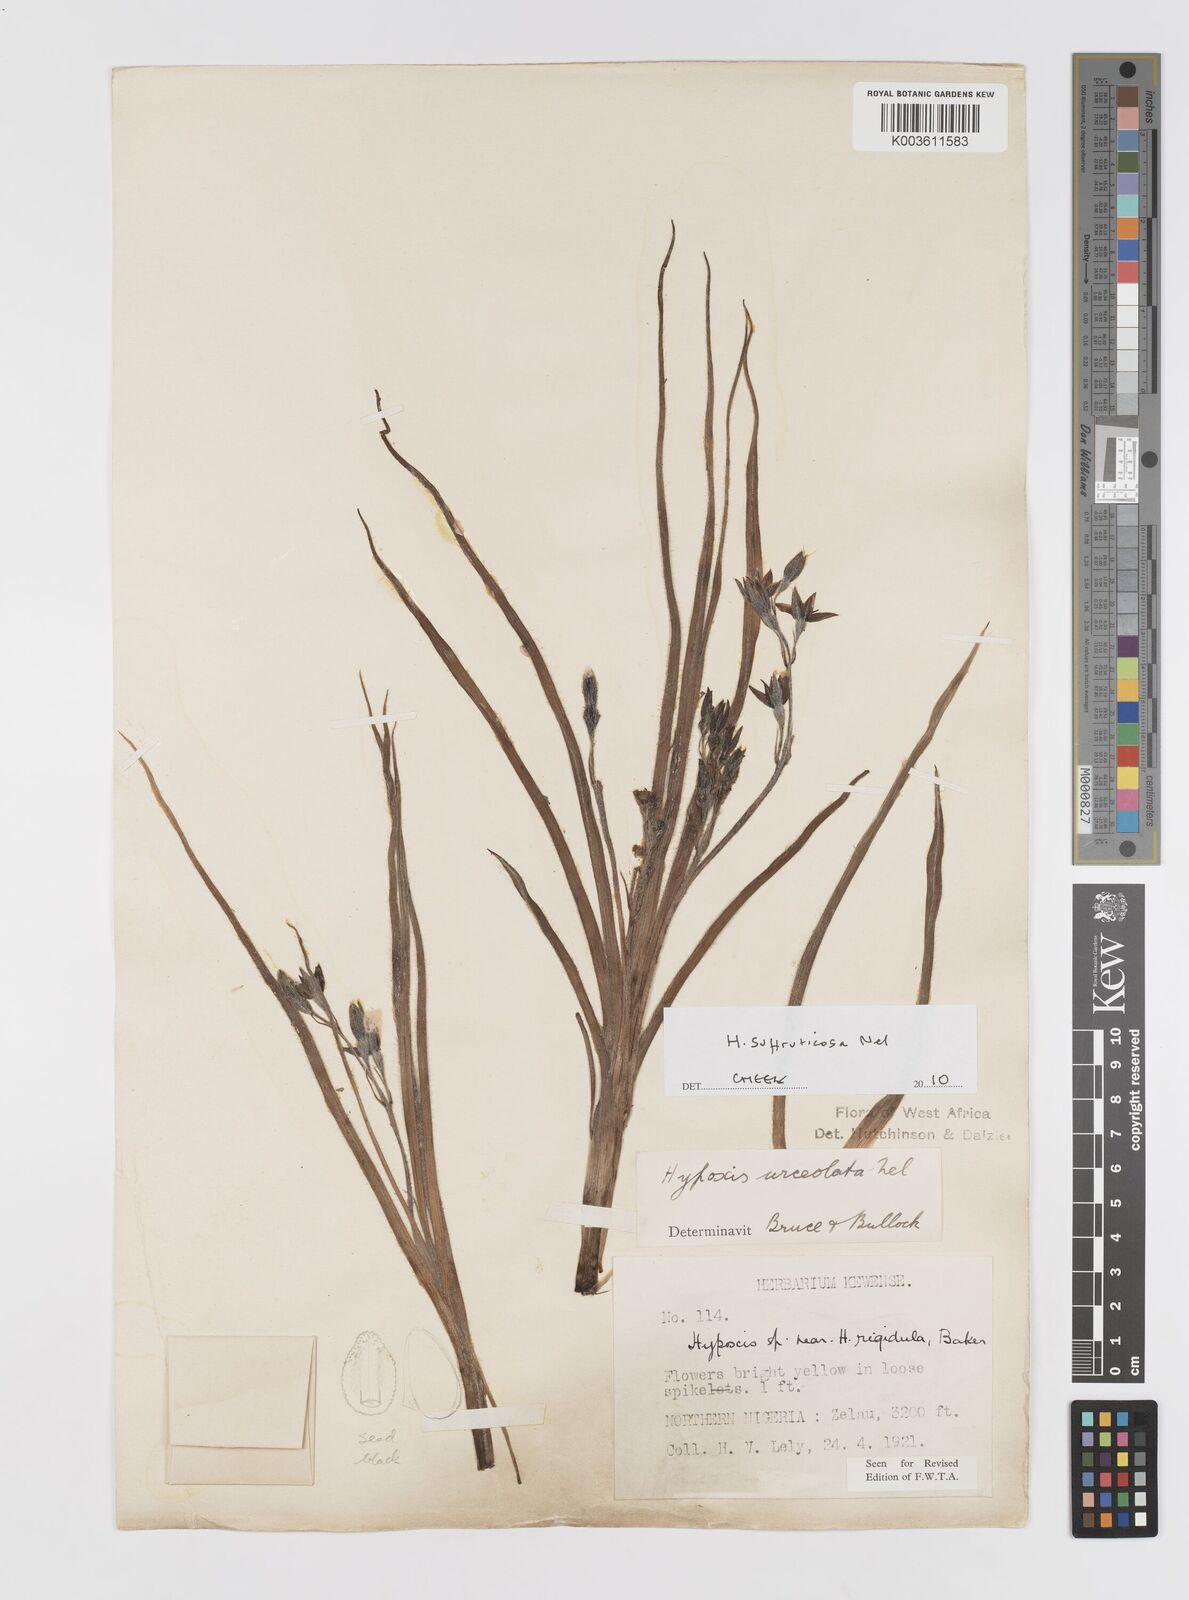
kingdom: Plantae
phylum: Tracheophyta
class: Liliopsida
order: Asparagales
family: Hypoxidaceae
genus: Hypoxis
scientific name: Hypoxis suffruticosa
